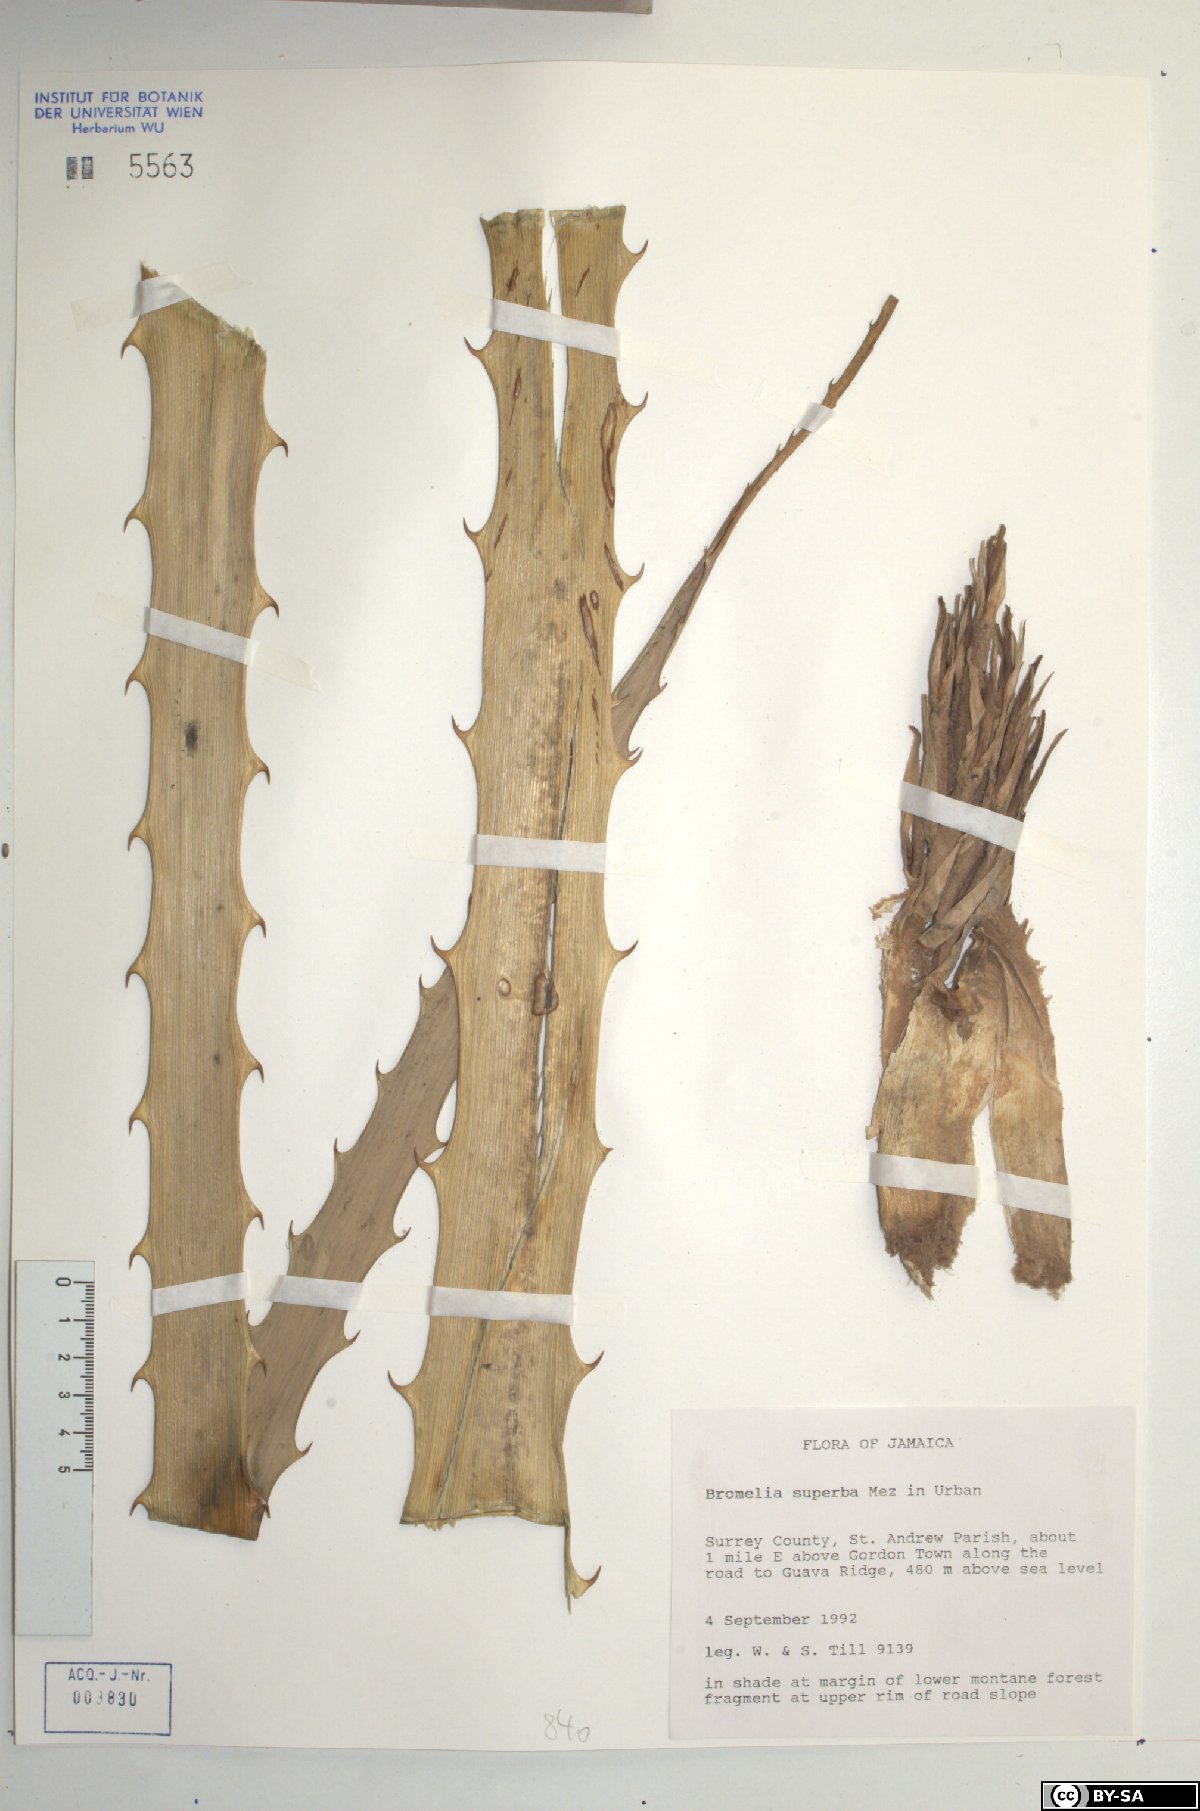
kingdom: Plantae
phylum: Tracheophyta
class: Liliopsida
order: Poales
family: Bromeliaceae
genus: Bromelia
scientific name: Bromelia superba
